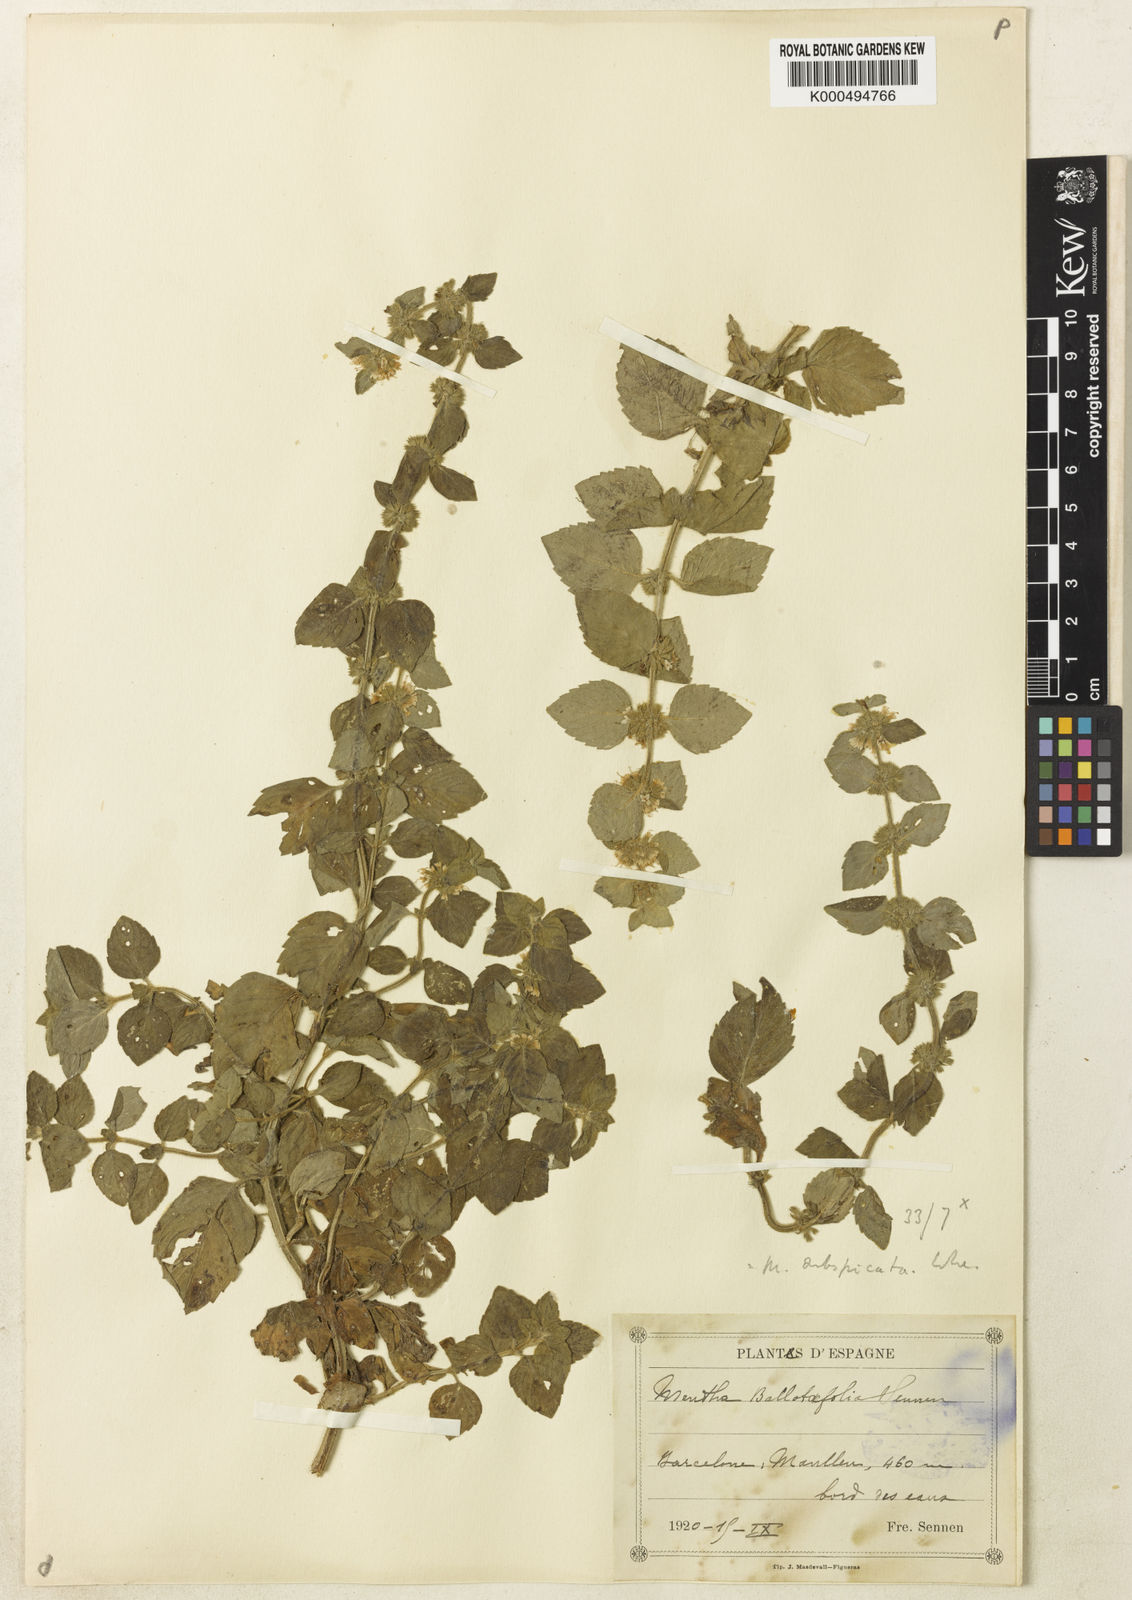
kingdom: Plantae
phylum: Tracheophyta
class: Magnoliopsida
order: Lamiales
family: Lamiaceae
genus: Mentha
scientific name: Mentha carinthiaca
